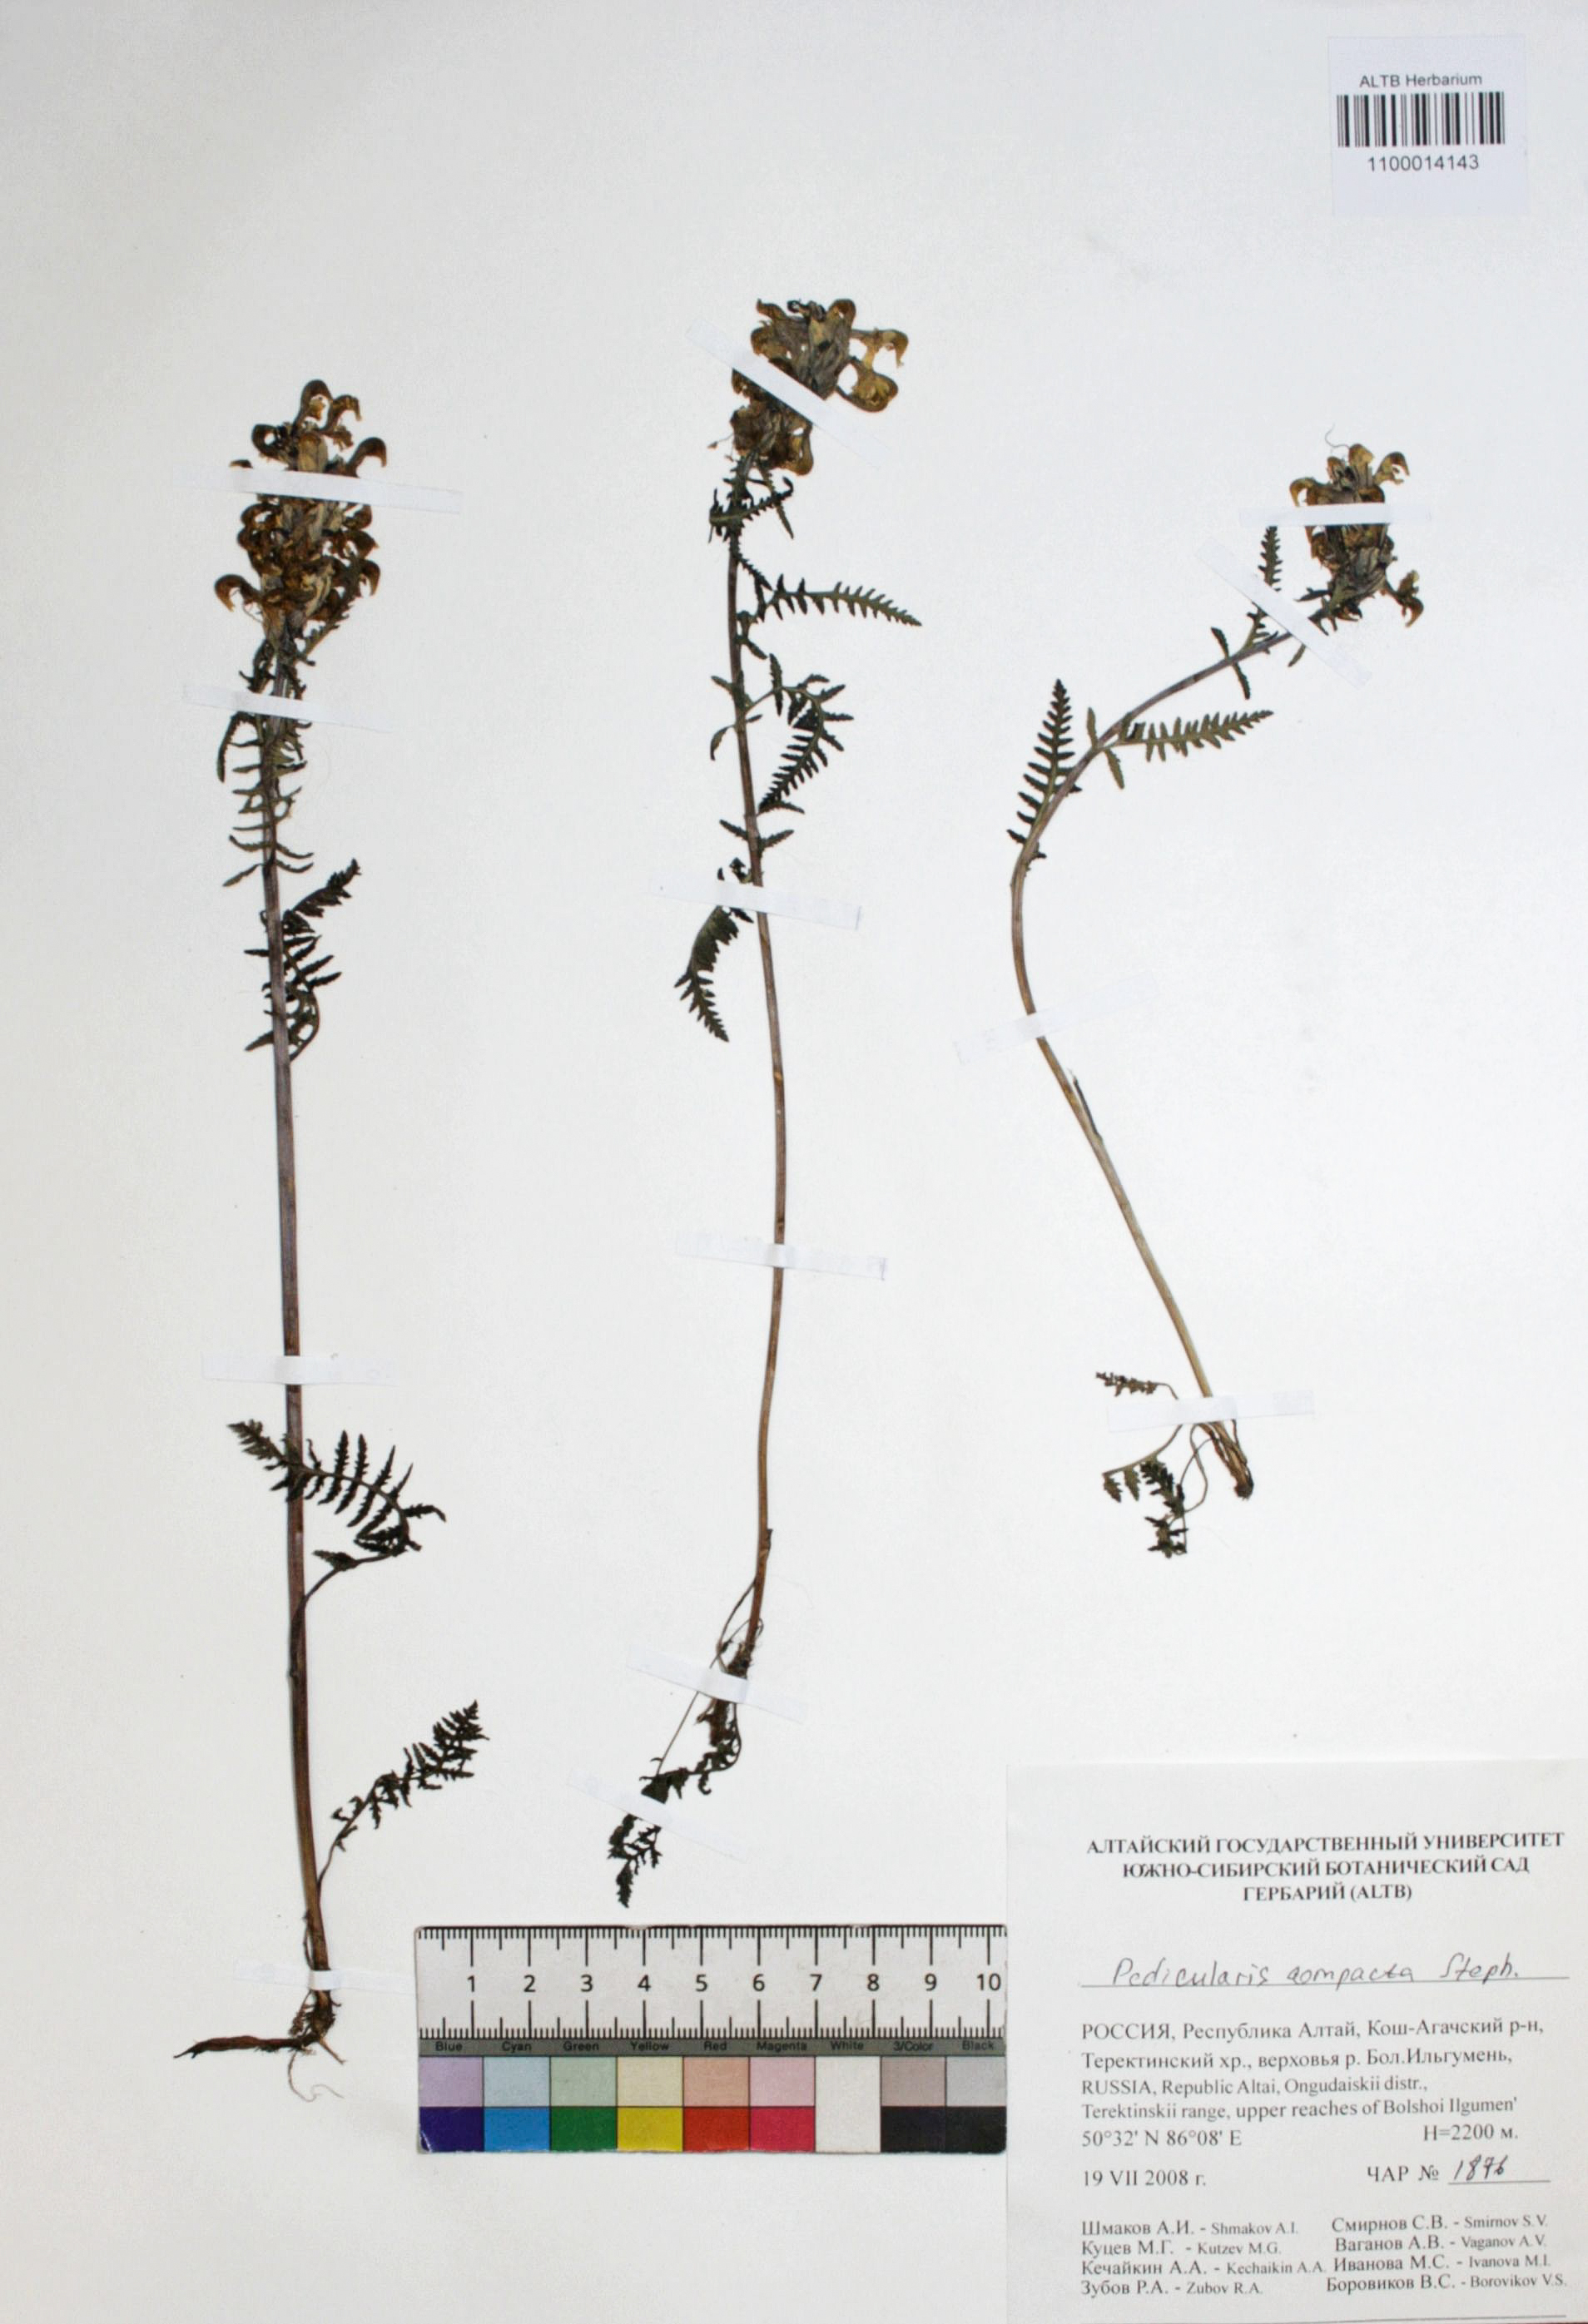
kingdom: Plantae
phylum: Tracheophyta
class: Magnoliopsida
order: Lamiales
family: Orobanchaceae
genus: Pedicularis
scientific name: Pedicularis compacta
